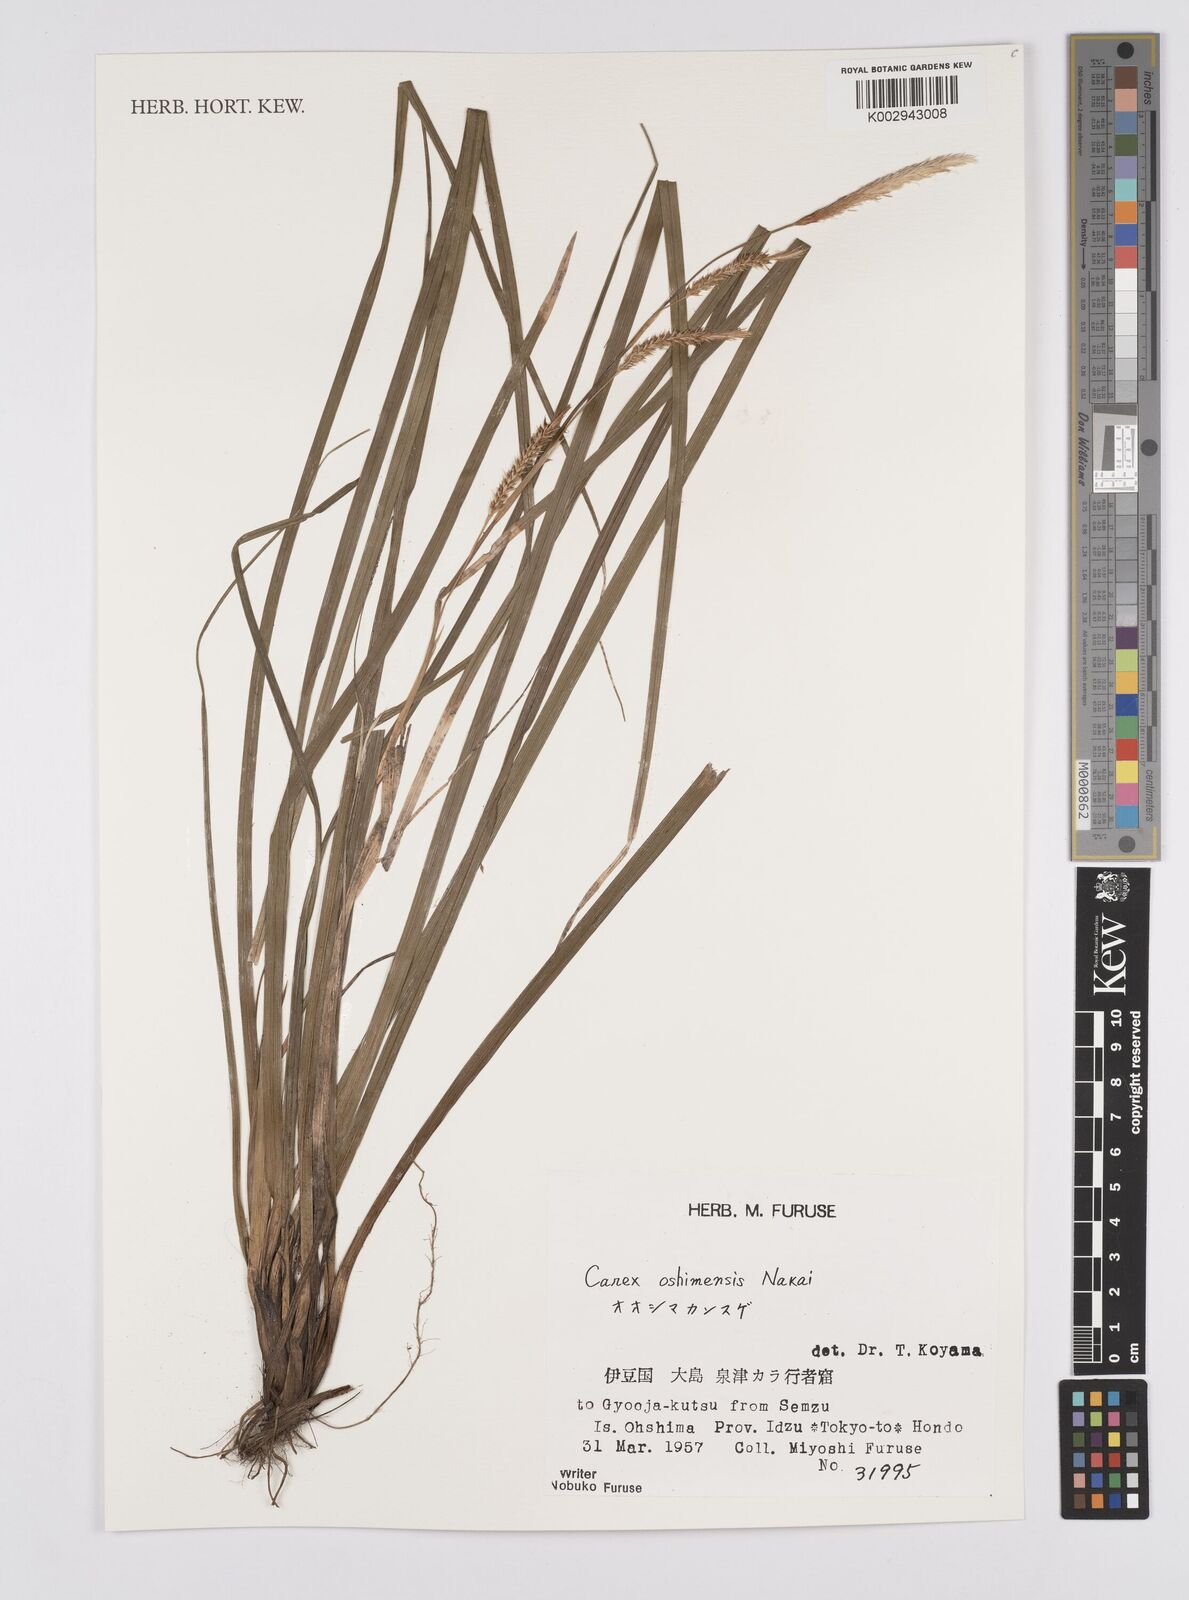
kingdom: Plantae
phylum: Tracheophyta
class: Liliopsida
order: Poales
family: Cyperaceae
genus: Carex
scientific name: Carex oshimensis
